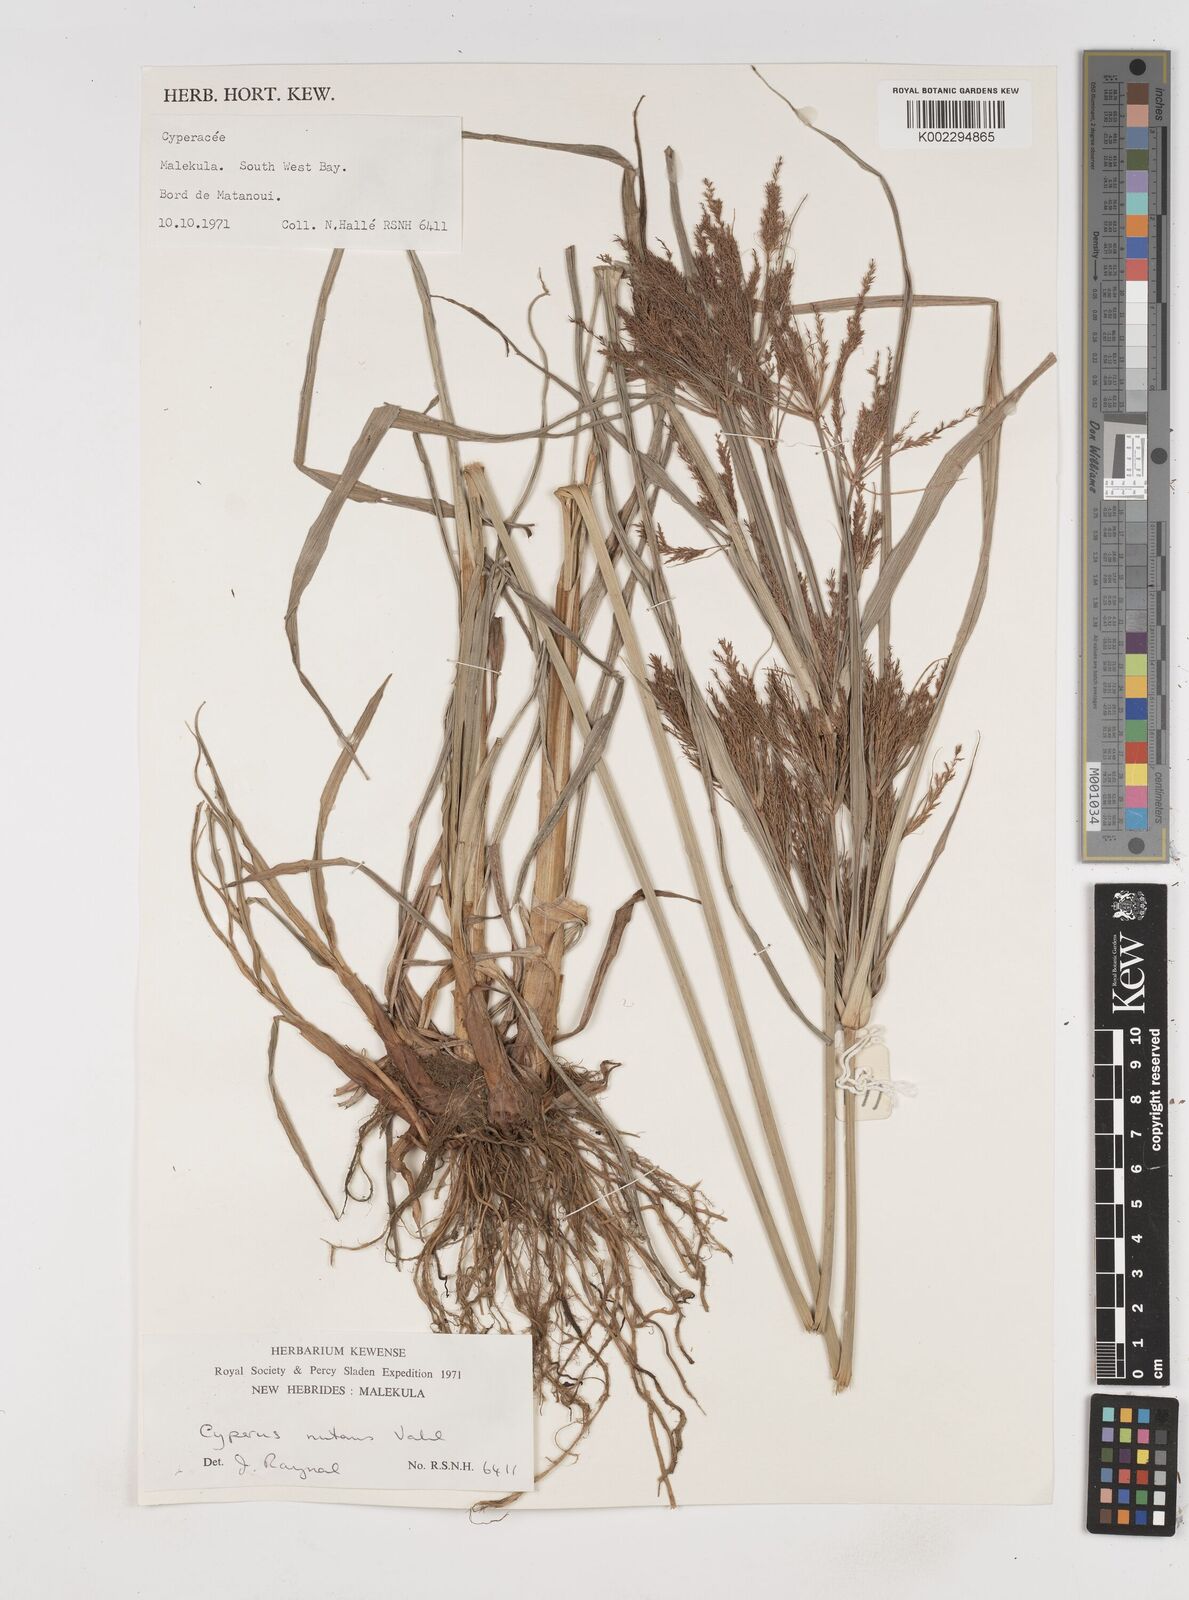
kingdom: Plantae
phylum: Tracheophyta
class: Liliopsida
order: Poales
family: Cyperaceae
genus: Cyperus
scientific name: Cyperus nutans
